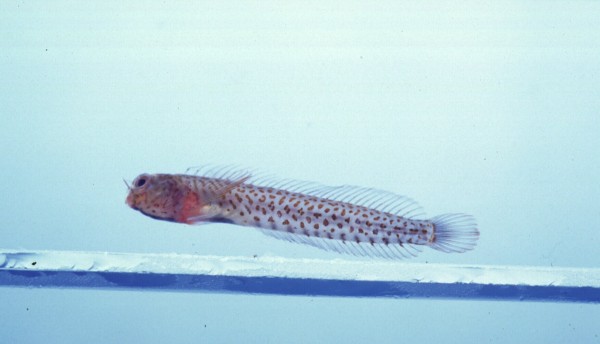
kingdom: Animalia
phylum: Chordata
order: Perciformes
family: Blenniidae
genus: Laiphognathus
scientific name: Laiphognathus multimaculatus
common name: Spotty blenny
